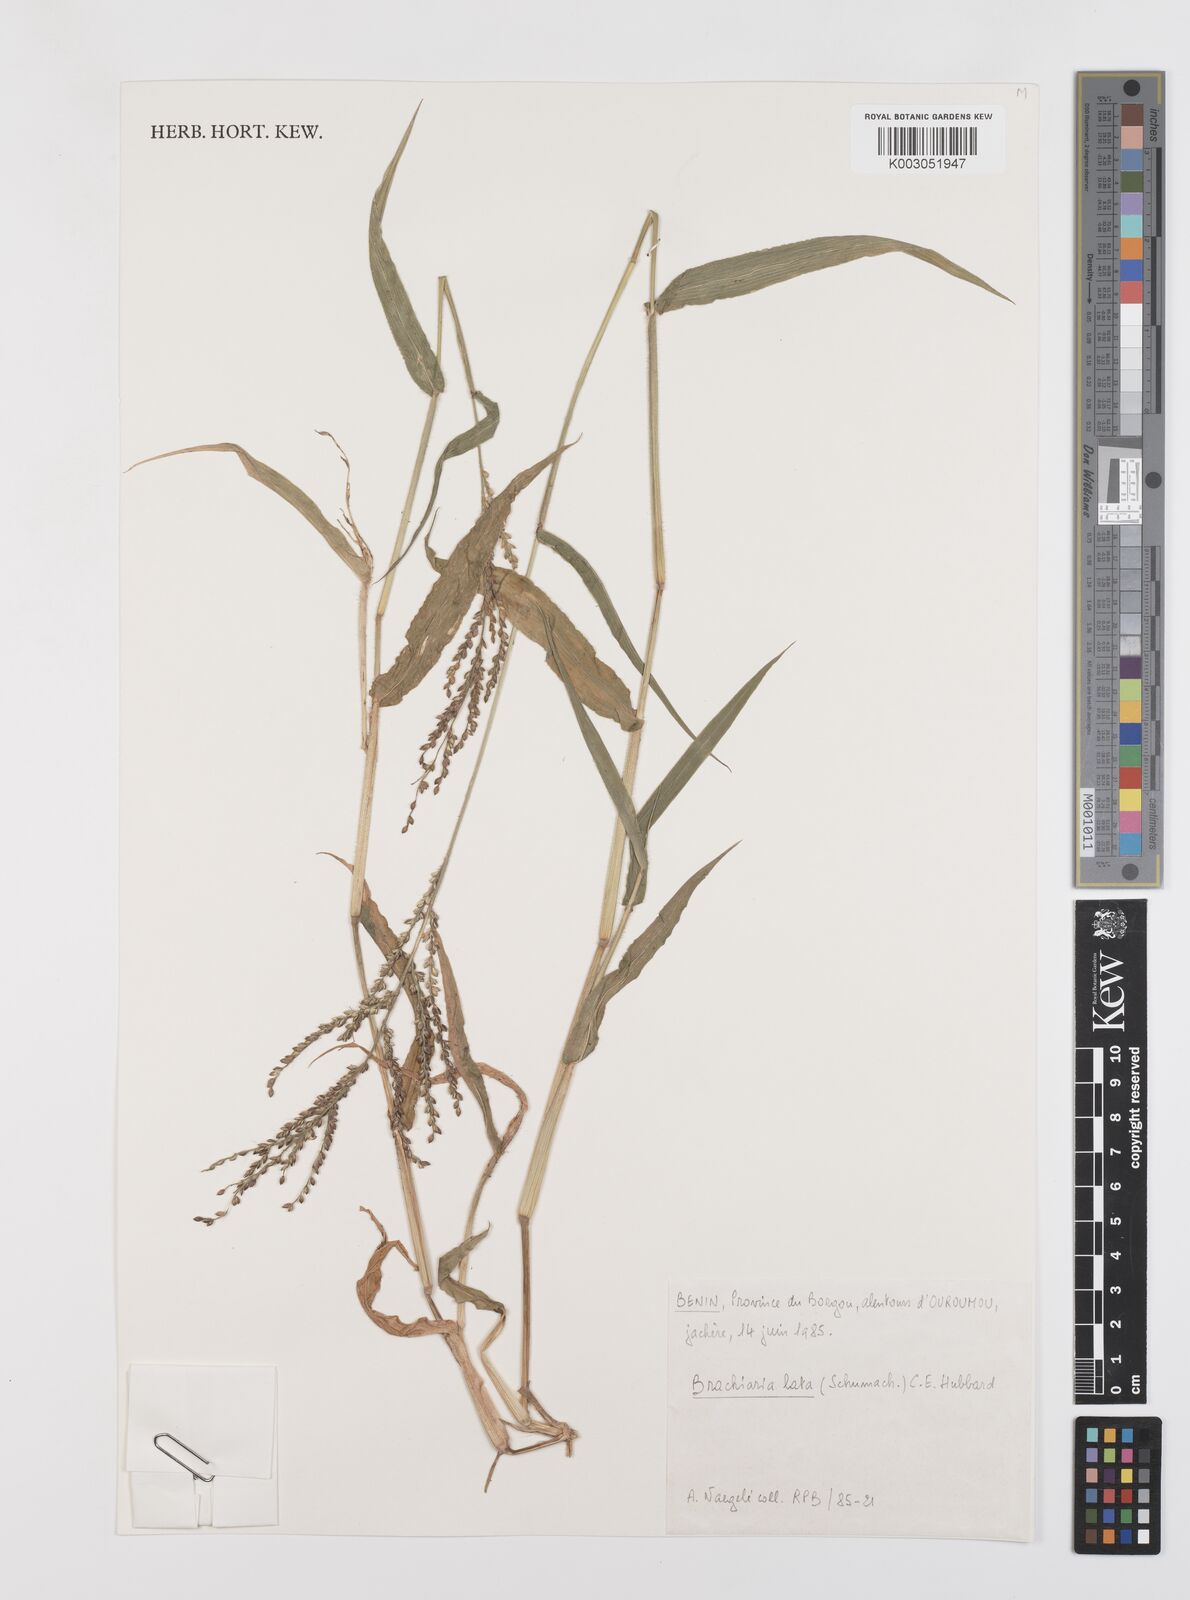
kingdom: Plantae
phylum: Tracheophyta
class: Liliopsida
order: Poales
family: Poaceae
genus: Urochloa
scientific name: Urochloa lata
